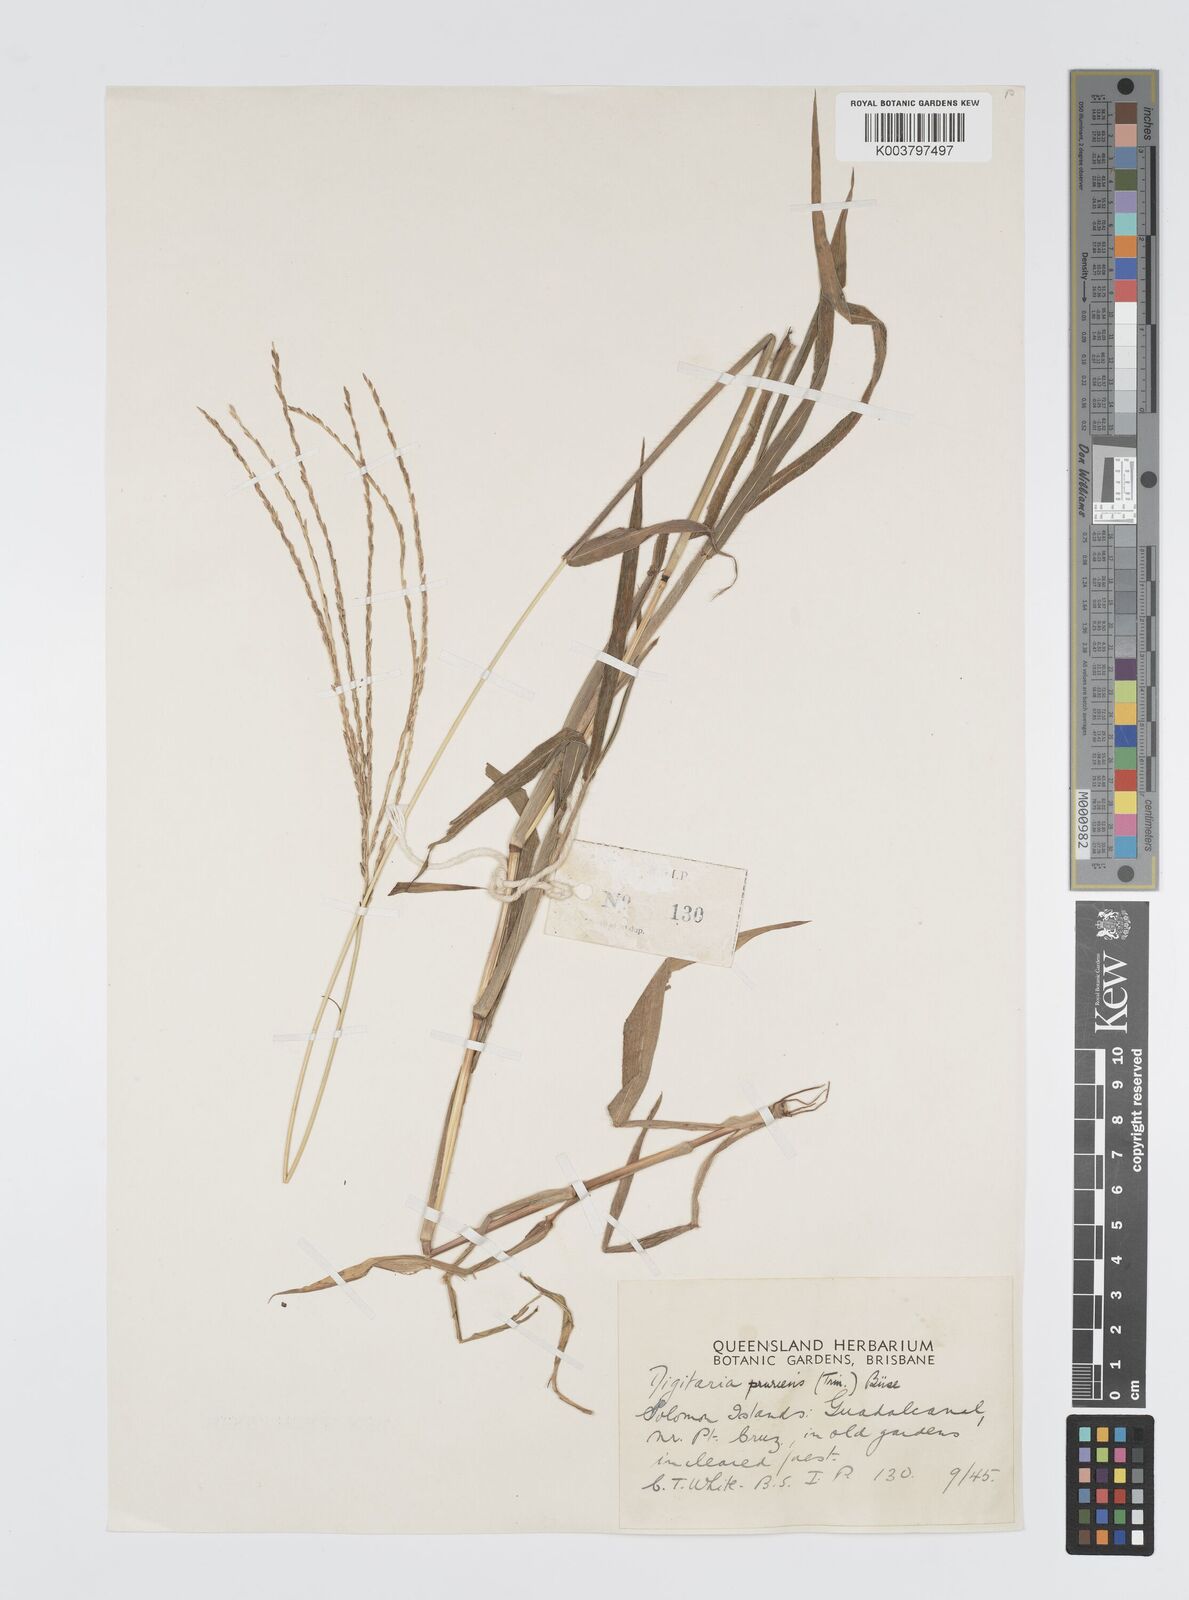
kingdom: Plantae
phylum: Tracheophyta
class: Liliopsida
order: Poales
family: Poaceae
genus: Digitaria
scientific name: Digitaria setigera
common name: East indian crabgrass
